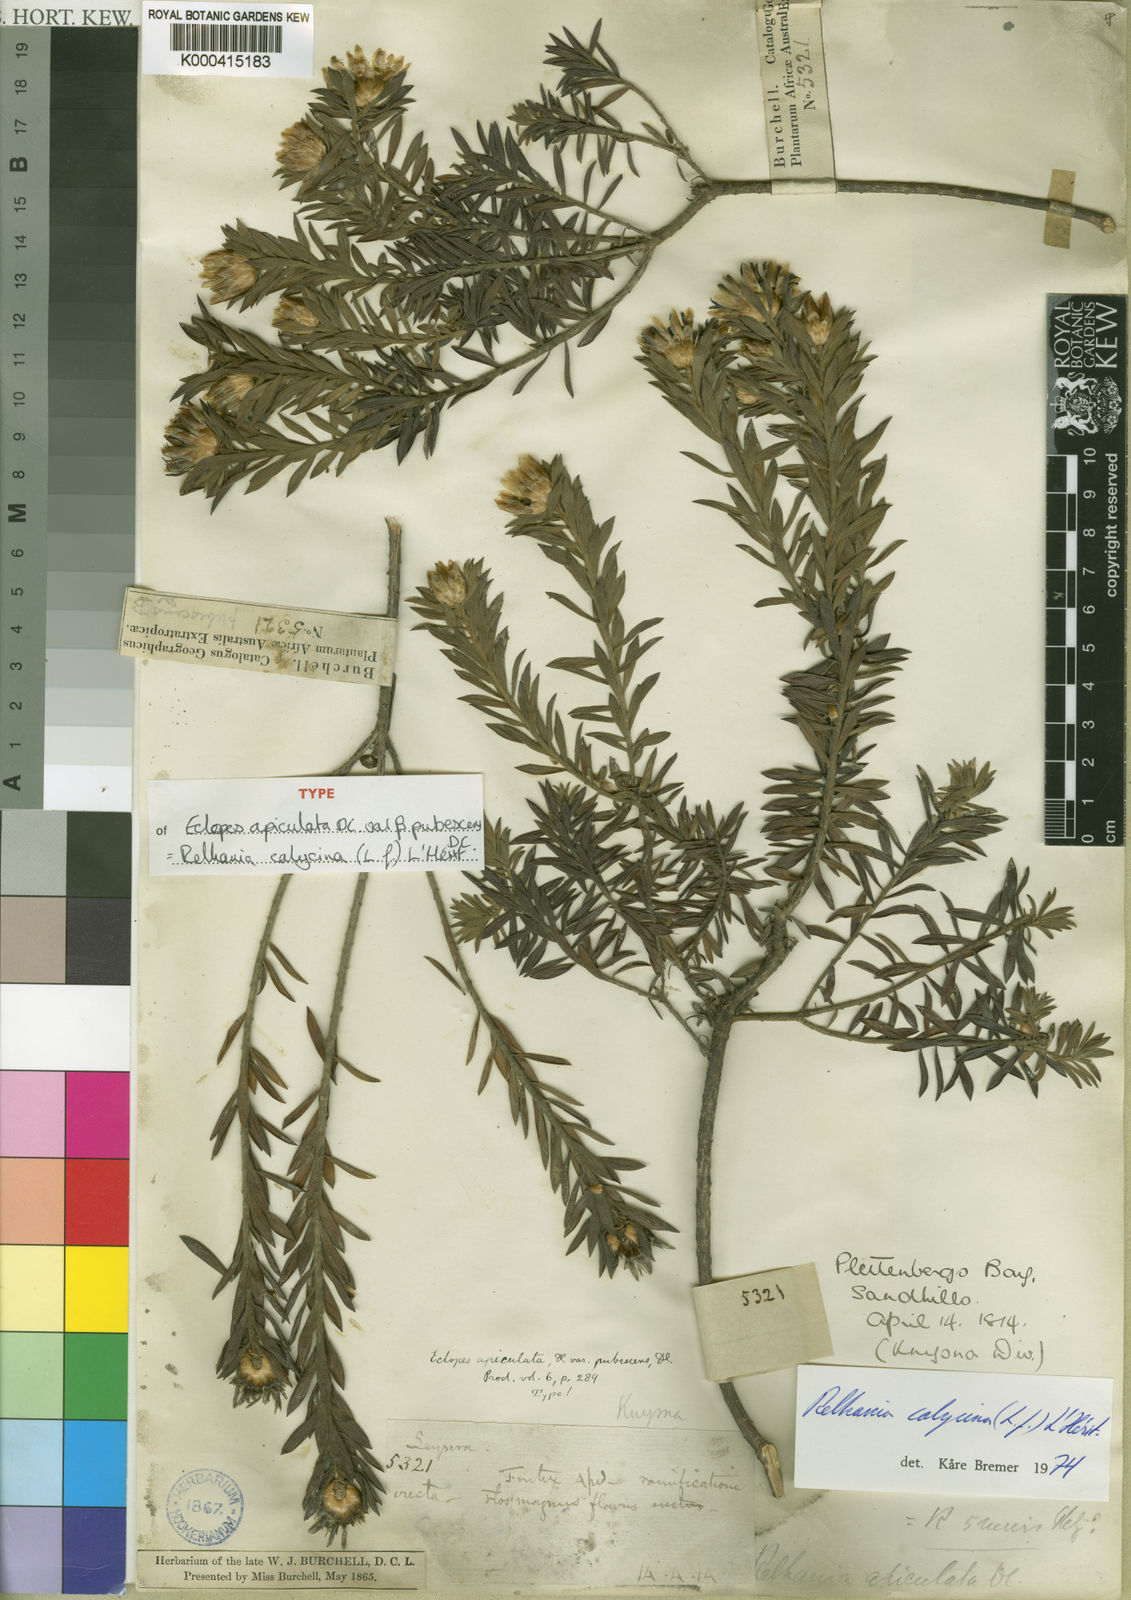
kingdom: Plantae
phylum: Tracheophyta
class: Magnoliopsida
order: Asterales
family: Asteraceae
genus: Oedera
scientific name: Oedera Relhania spec
